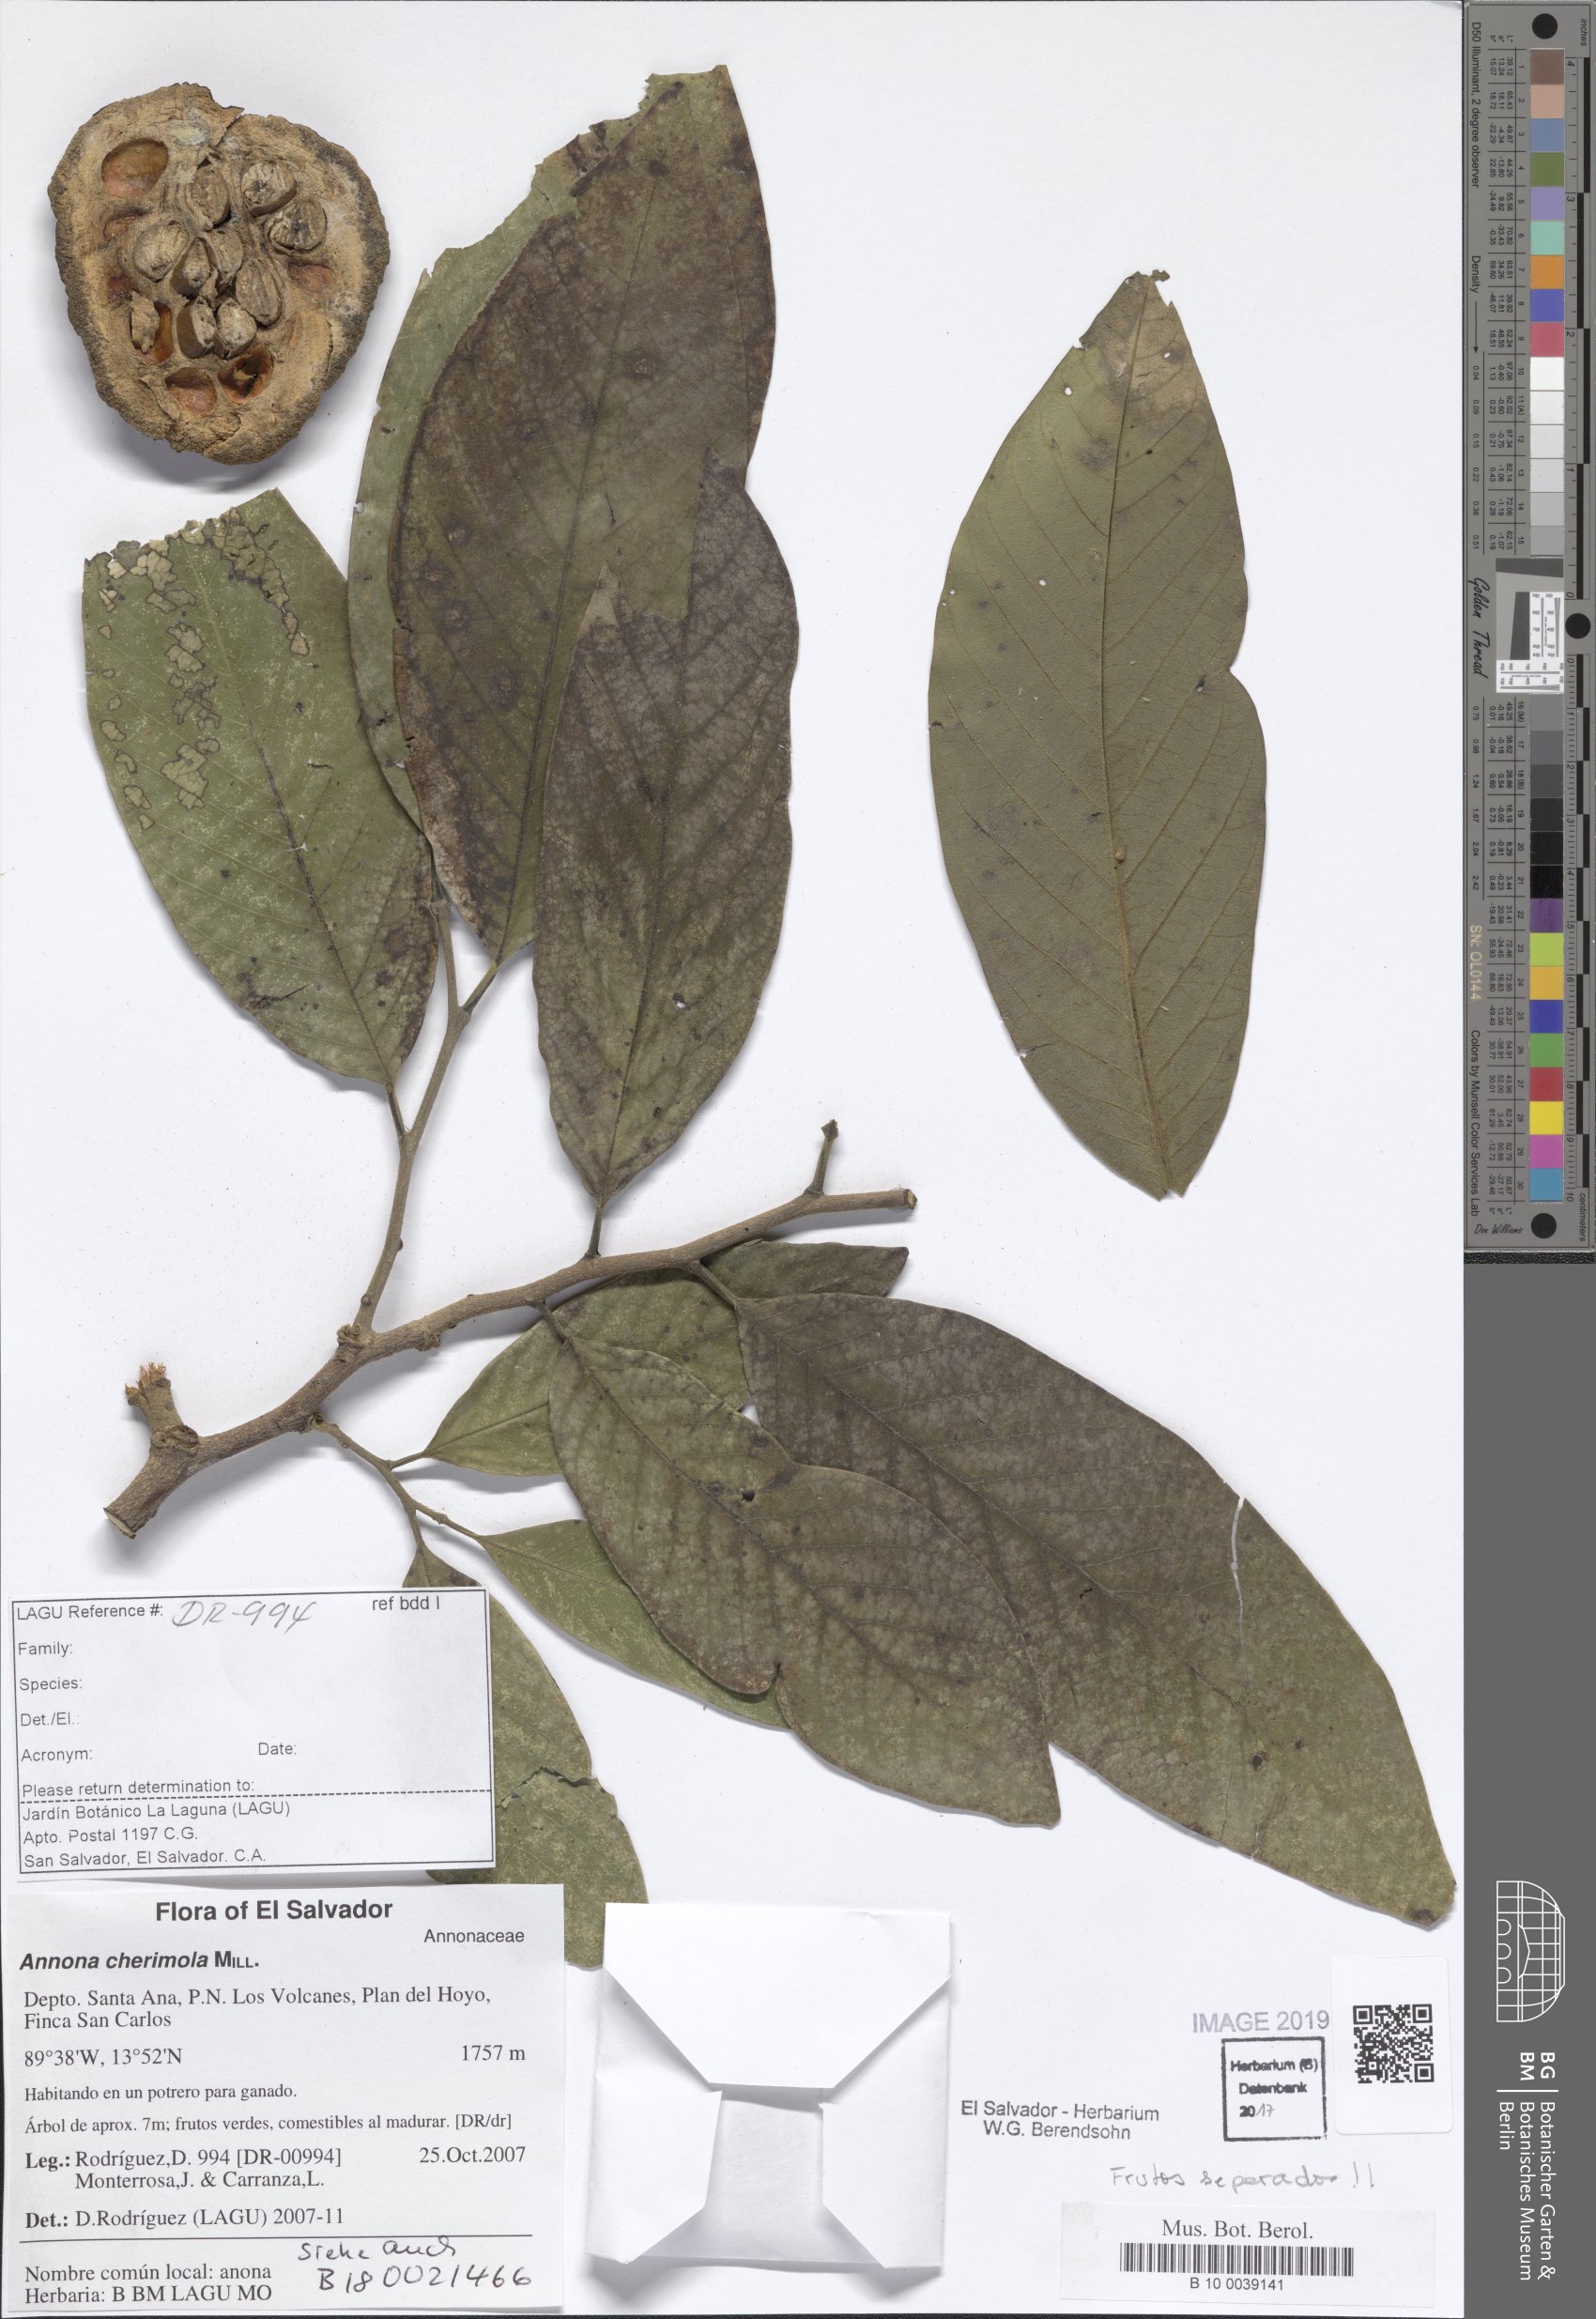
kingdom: Plantae
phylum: Tracheophyta
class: Magnoliopsida
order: Magnoliales
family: Annonaceae
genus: Annona
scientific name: Annona cherimola
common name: Cherimoya
